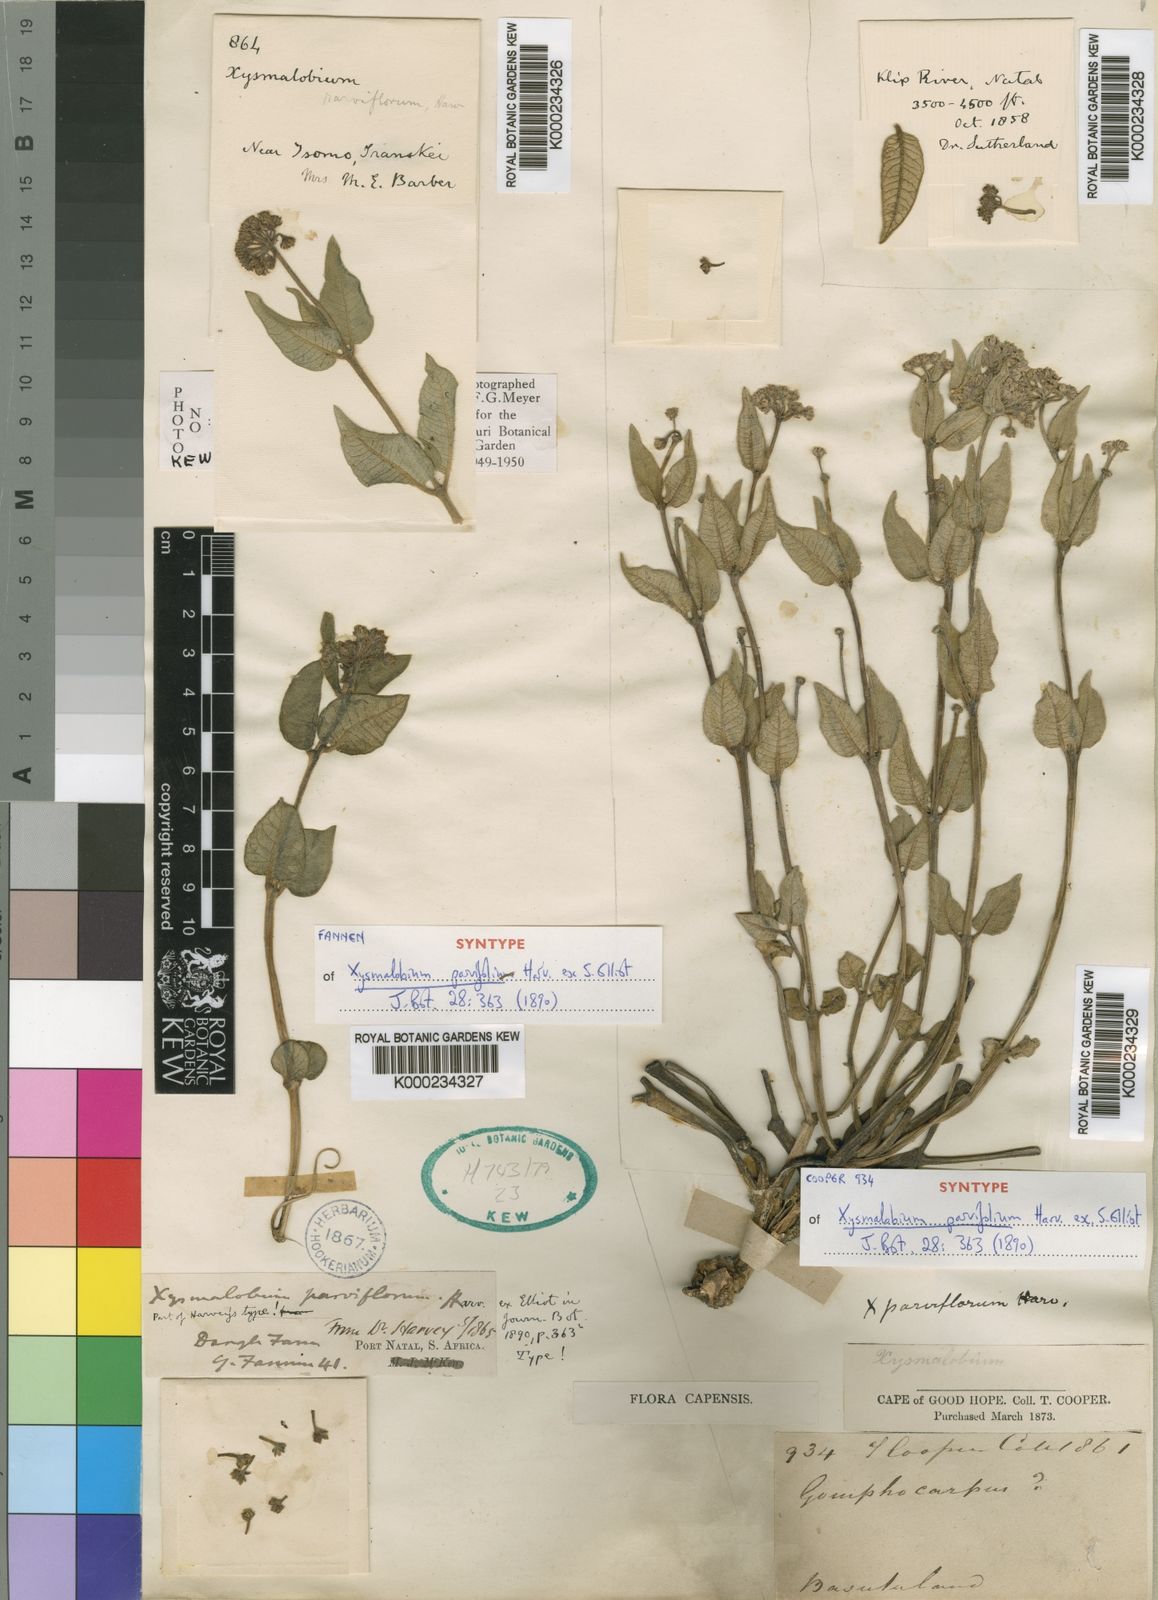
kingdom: Plantae
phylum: Tracheophyta
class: Magnoliopsida
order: Gentianales
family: Apocynaceae
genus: Xysmalobium
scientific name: Xysmalobium parviflorum
